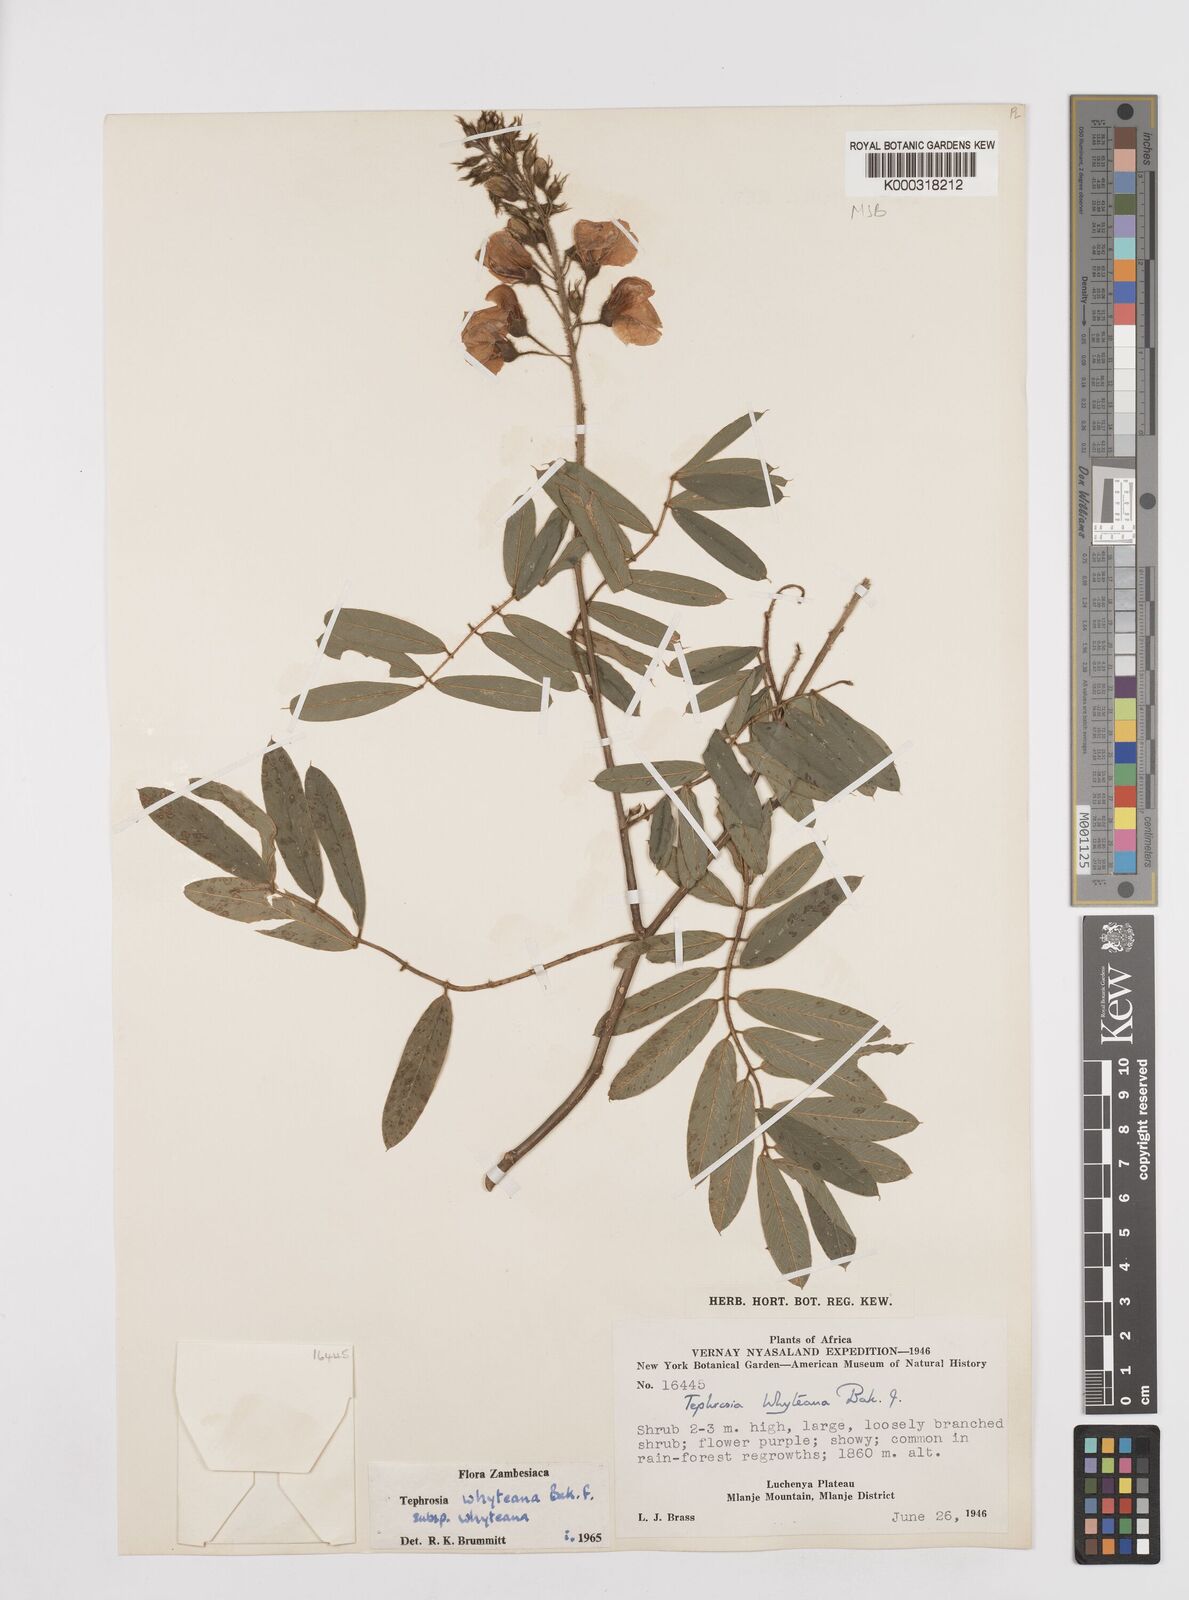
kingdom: Plantae
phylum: Tracheophyta
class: Magnoliopsida
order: Fabales
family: Fabaceae
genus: Tephrosia
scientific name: Tephrosia whyteana
